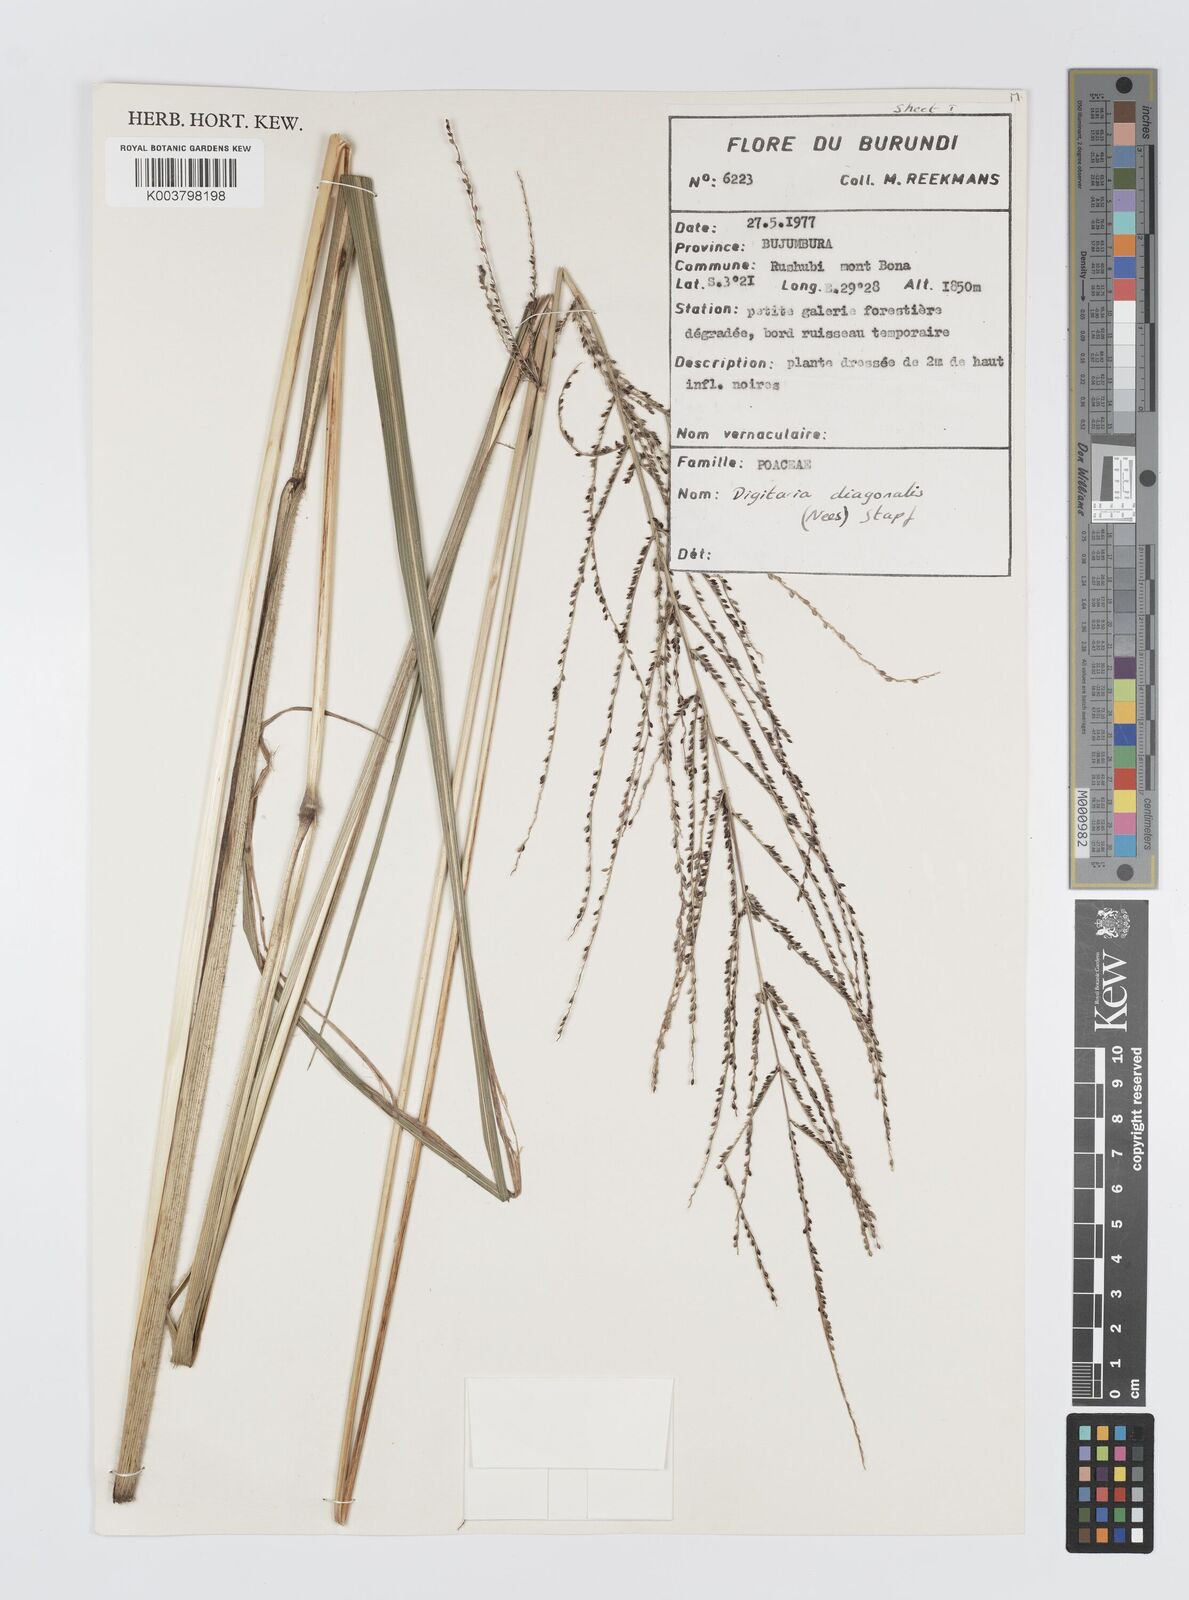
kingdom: Plantae
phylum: Tracheophyta
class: Liliopsida
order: Poales
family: Poaceae
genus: Digitaria
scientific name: Digitaria diagonalis
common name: Brown-seed finger grass
